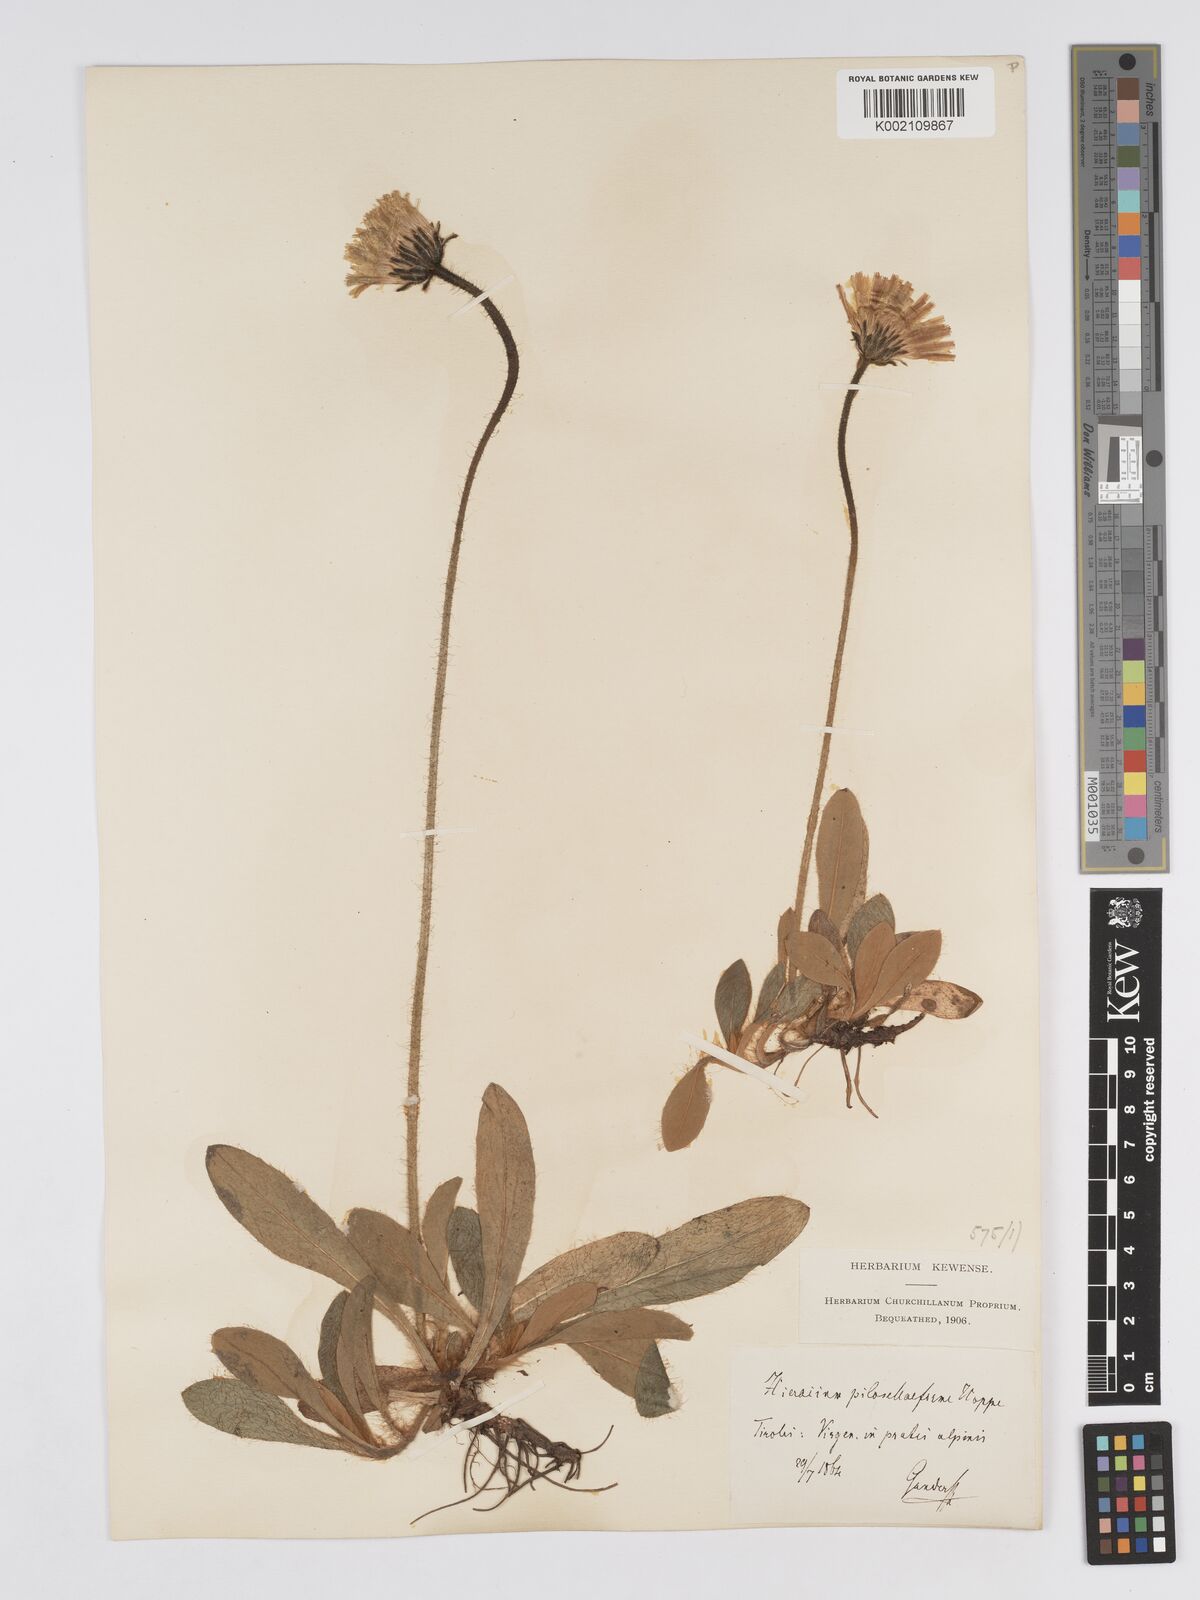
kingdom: Plantae
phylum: Tracheophyta
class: Magnoliopsida
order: Asterales
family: Asteraceae
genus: Pilosella
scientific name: Pilosella hoppeana
